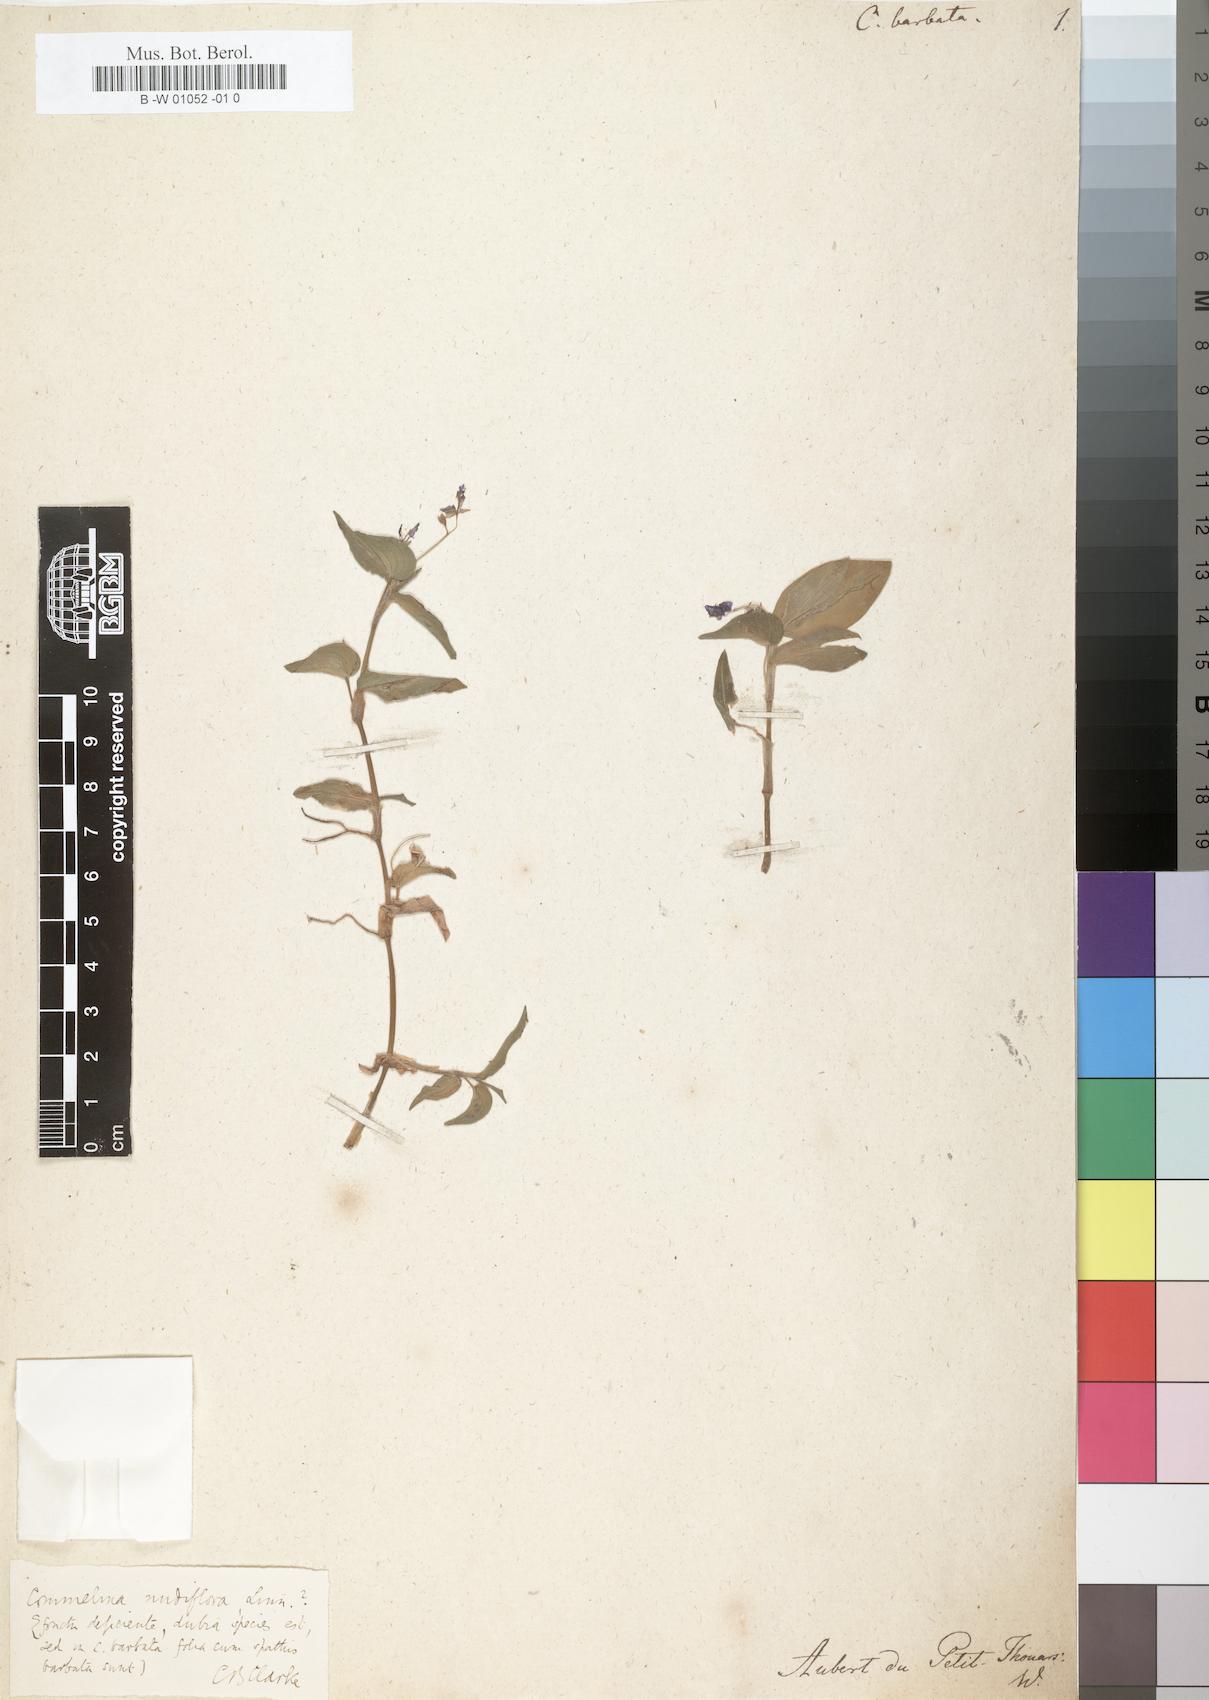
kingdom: Plantae
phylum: Tracheophyta
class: Liliopsida
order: Commelinales
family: Commelinaceae
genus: Commelina
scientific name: Commelina barbata
